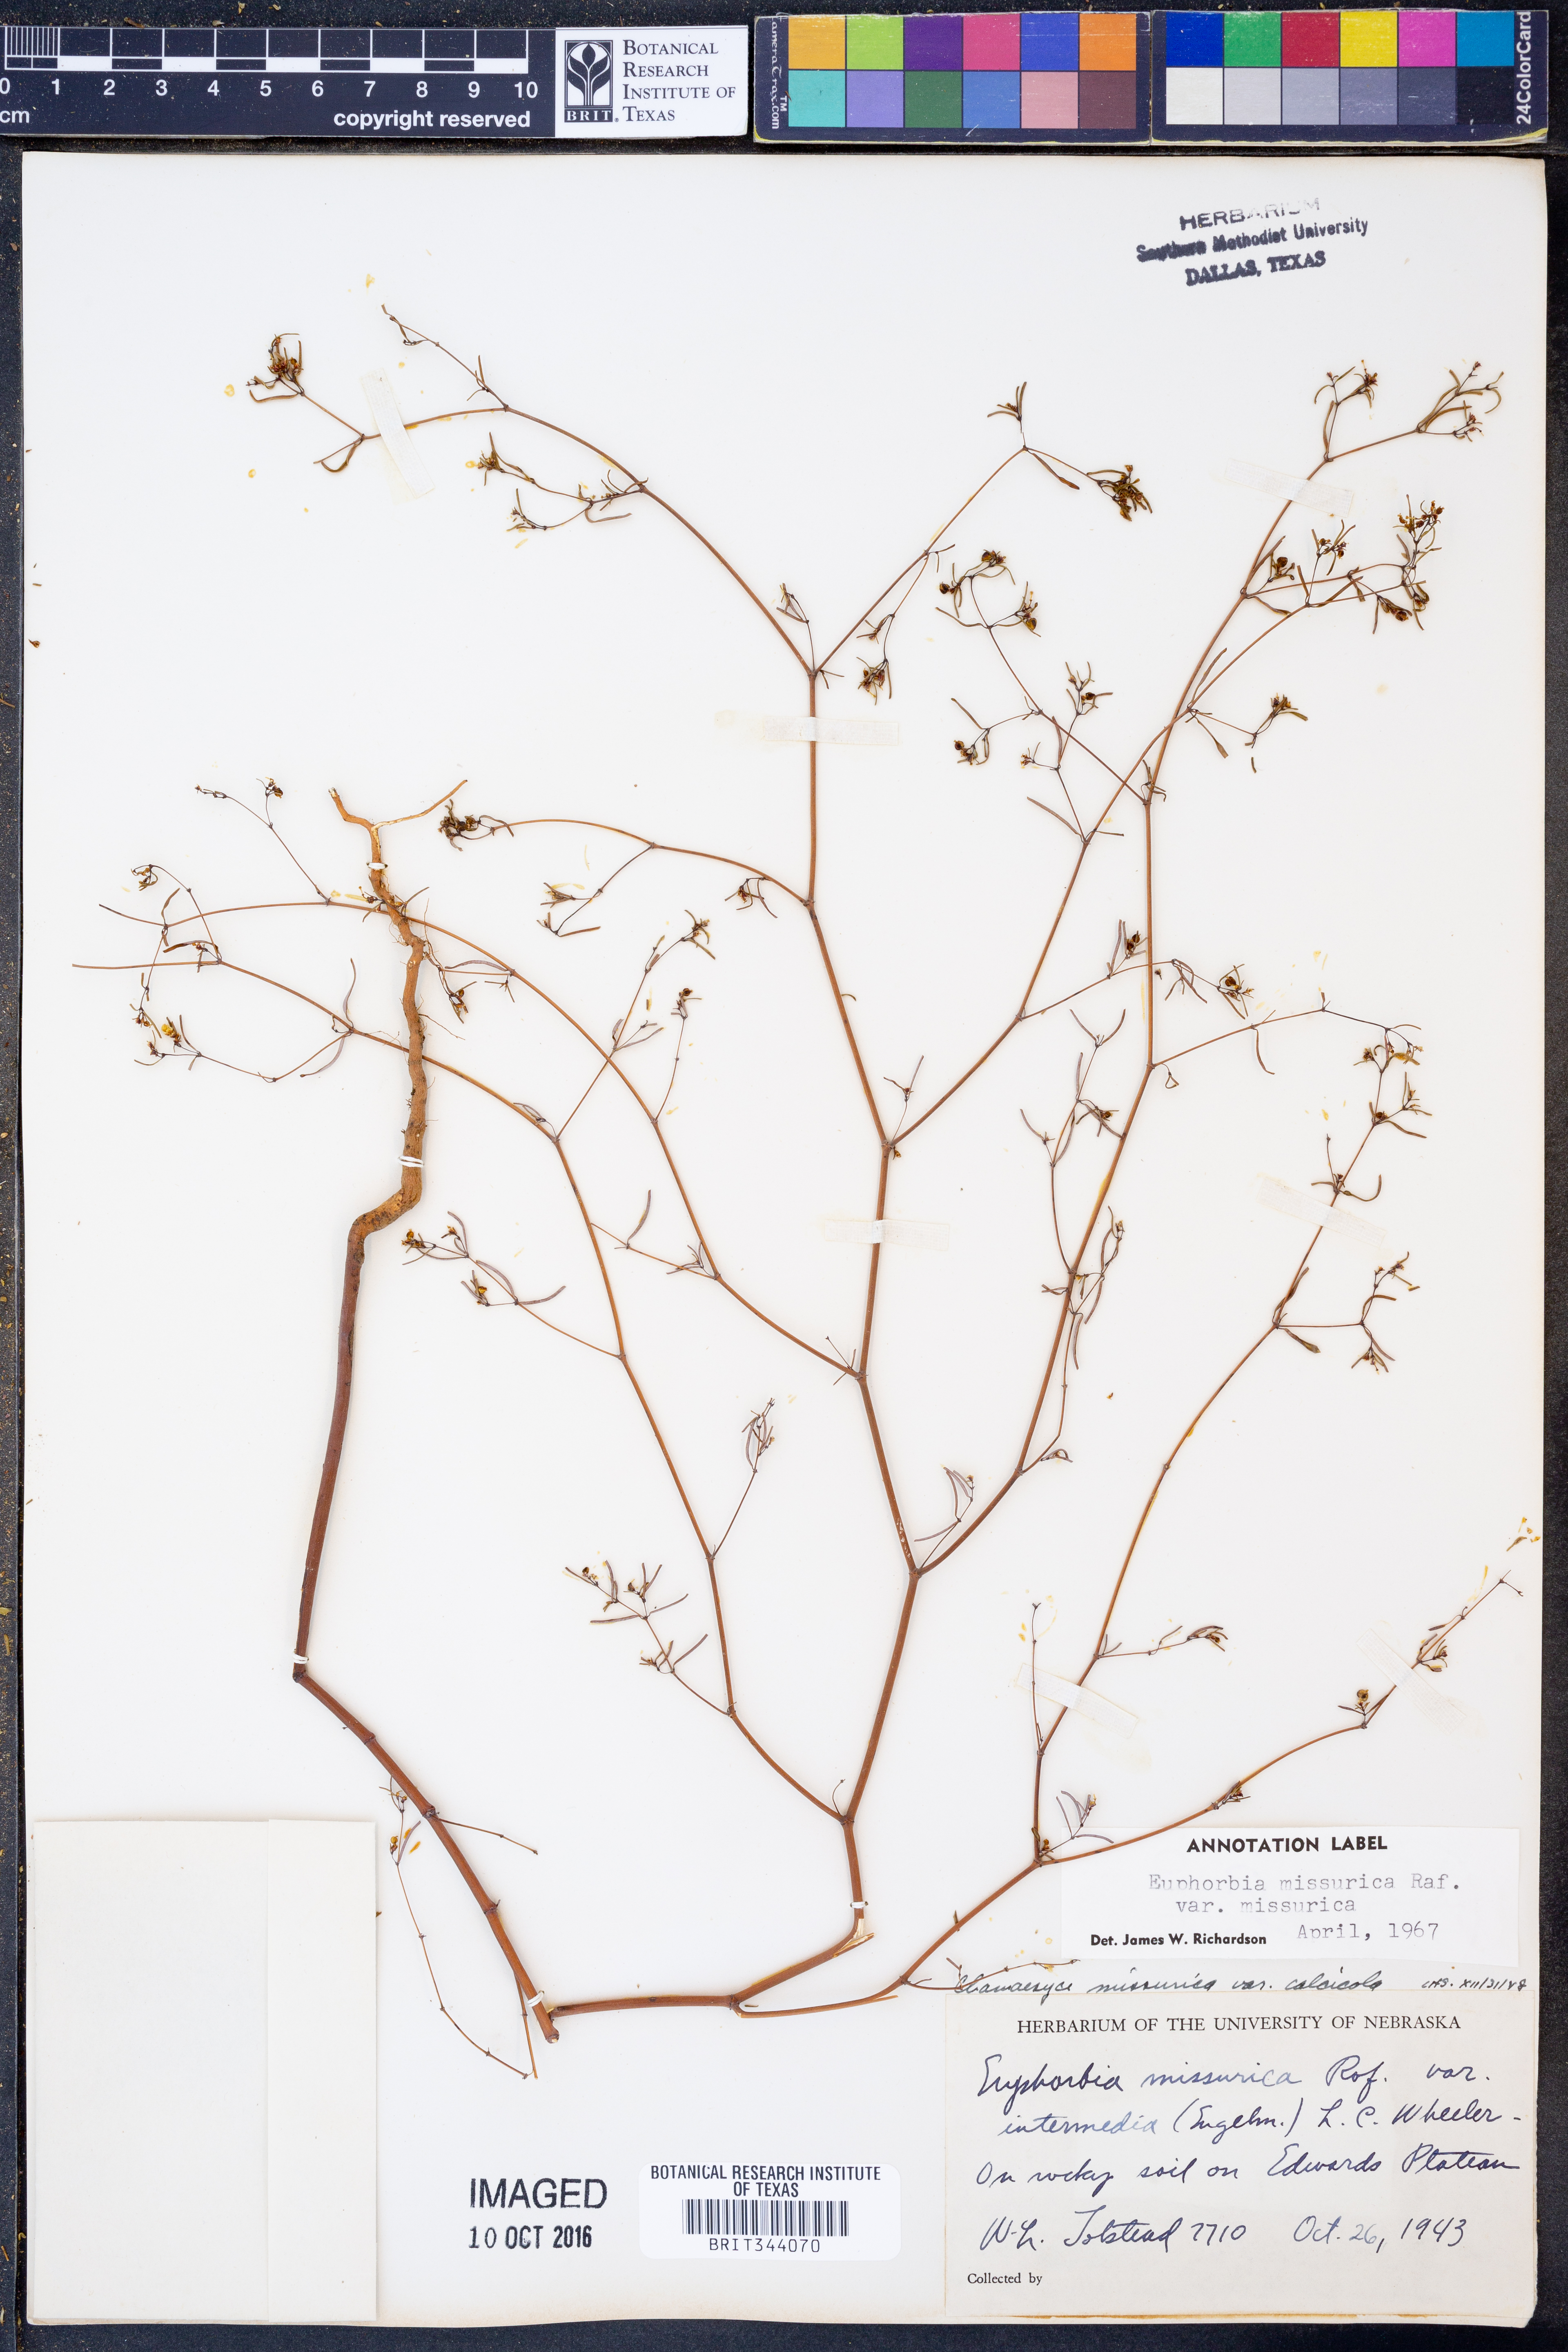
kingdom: Plantae
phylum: Tracheophyta
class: Magnoliopsida
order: Malpighiales
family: Euphorbiaceae
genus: Euphorbia
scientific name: Euphorbia missurica
